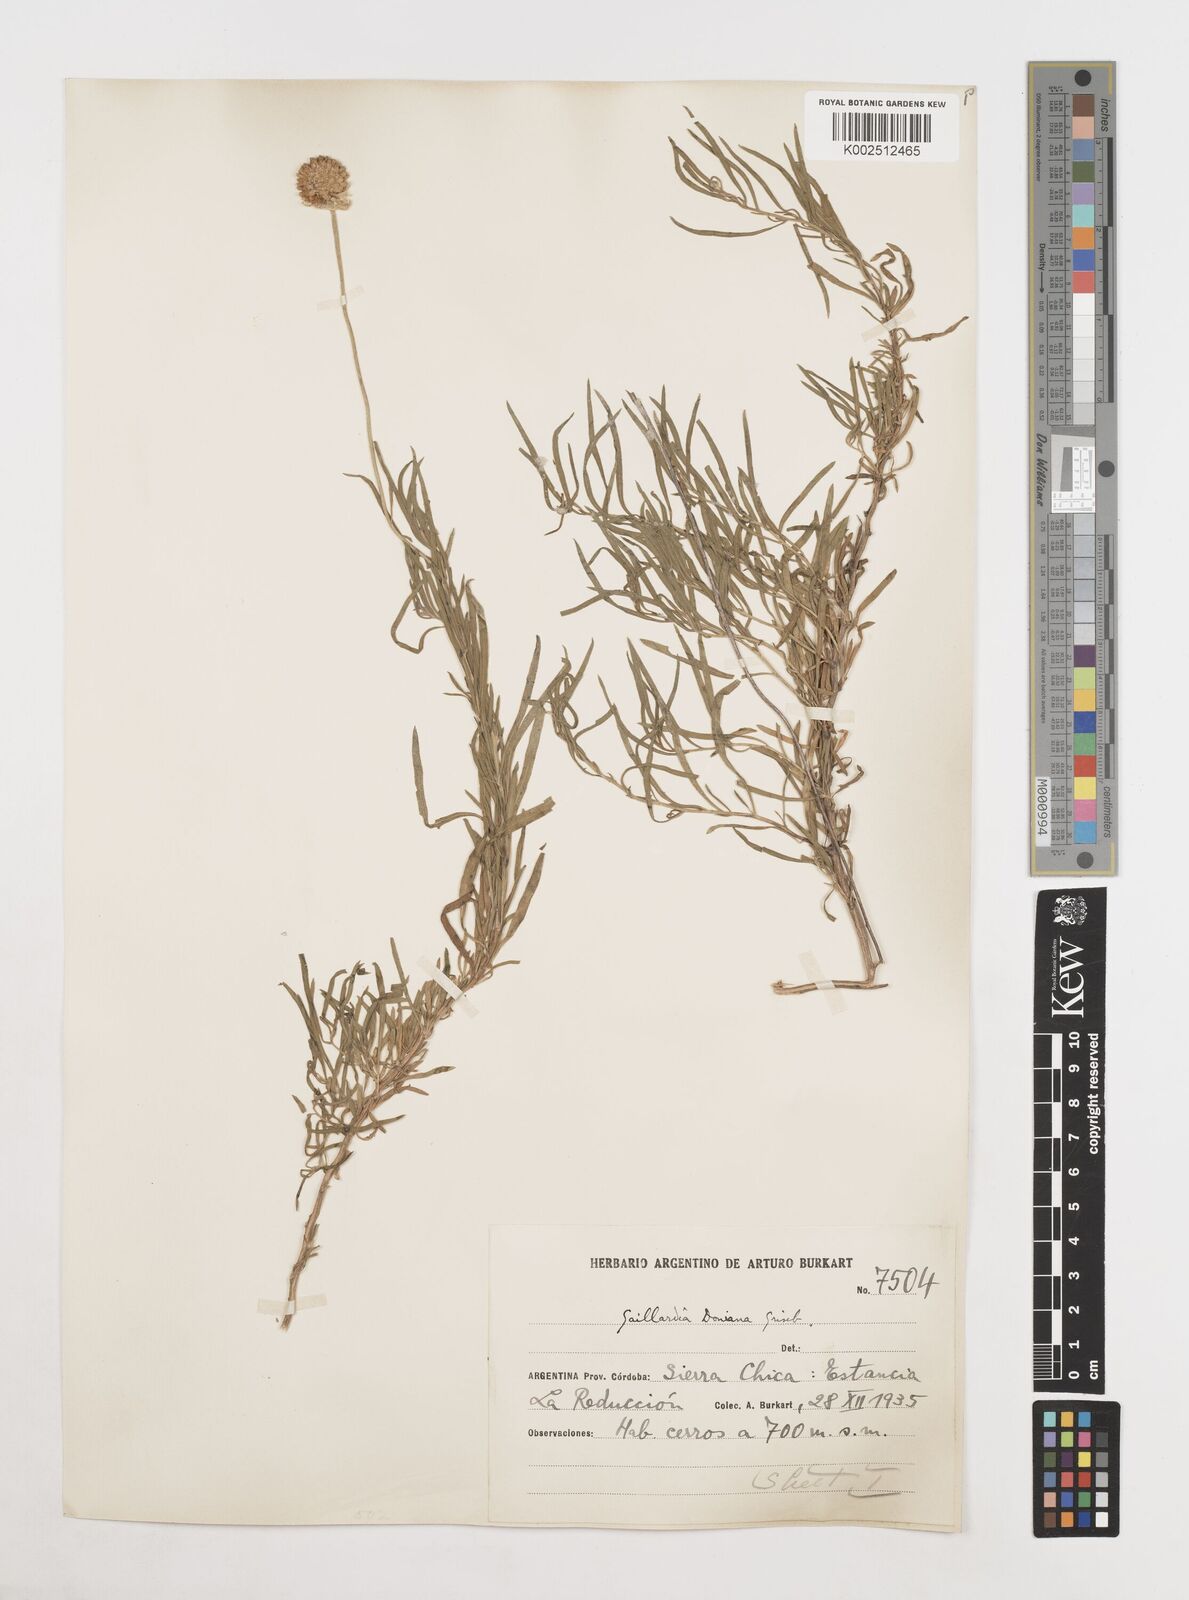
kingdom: Plantae
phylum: Tracheophyta
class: Magnoliopsida
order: Asterales
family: Asteraceae
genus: Gaillardia
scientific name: Gaillardia
